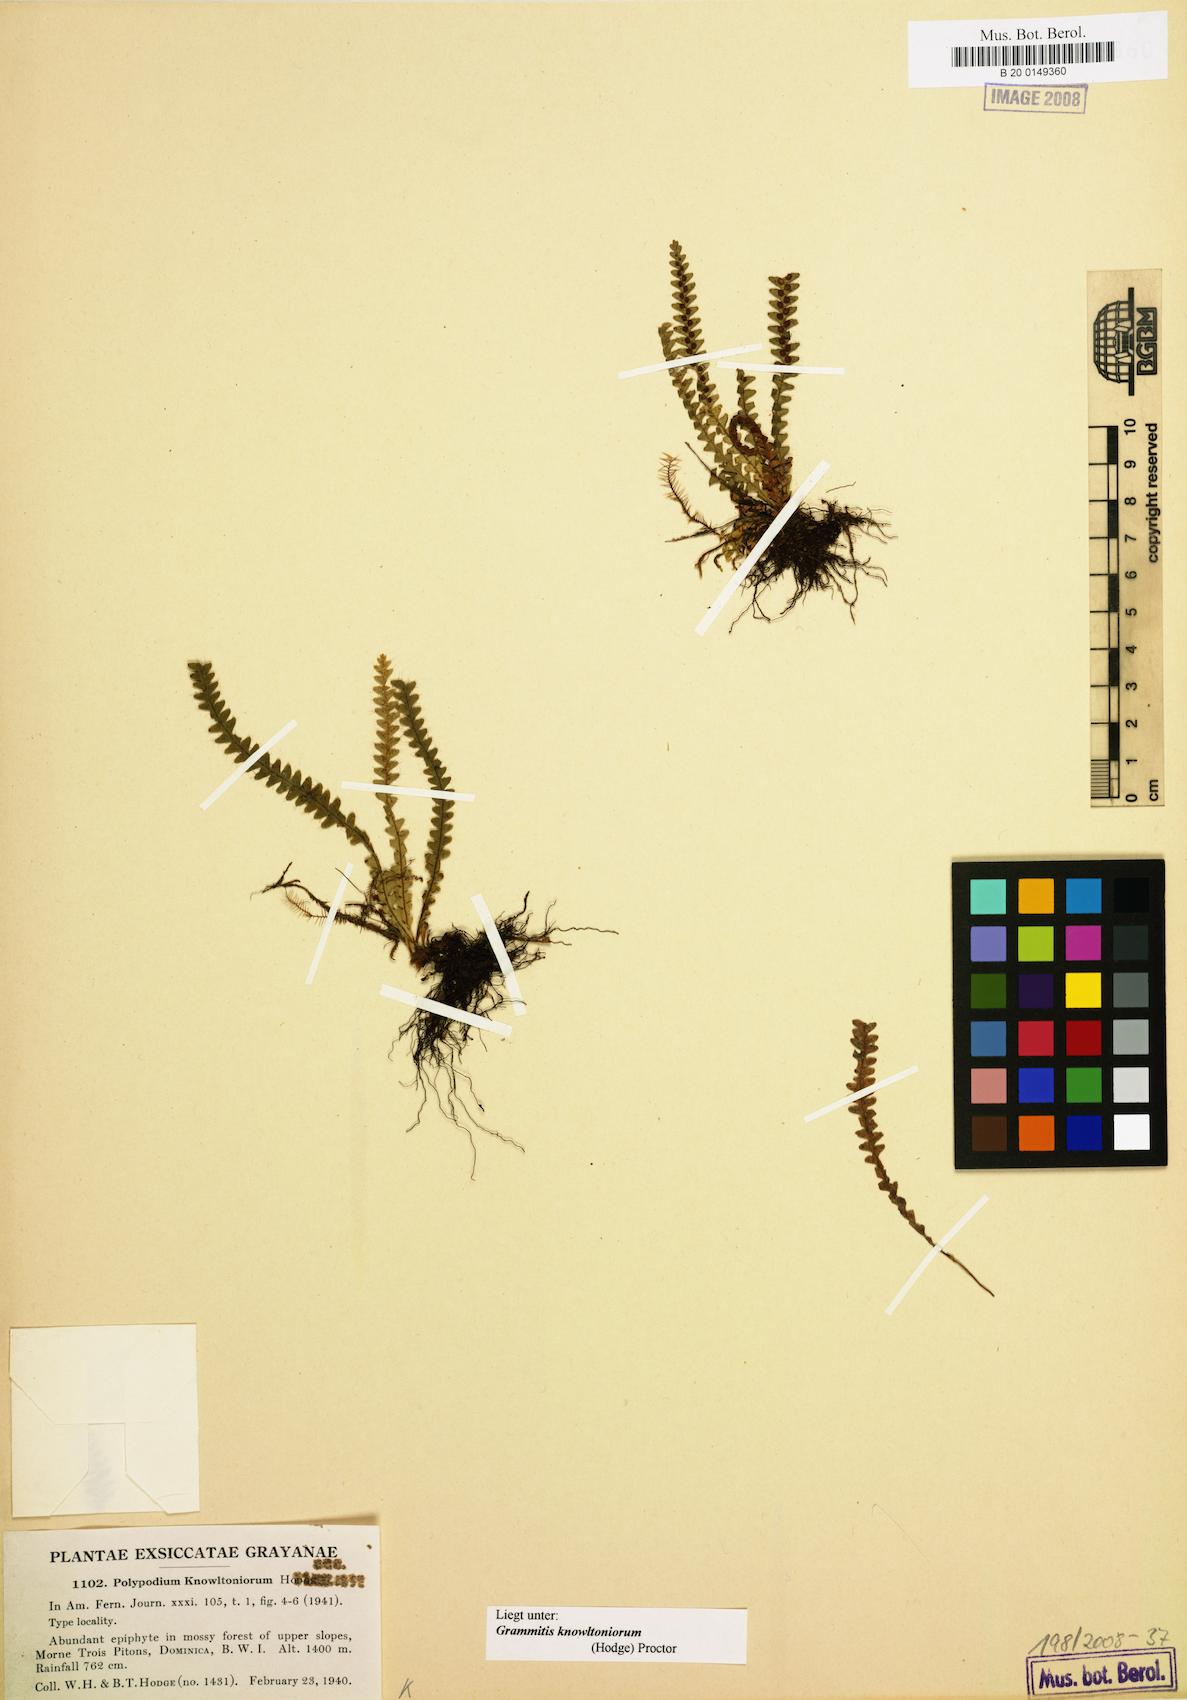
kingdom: Plantae
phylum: Tracheophyta
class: Polypodiopsida
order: Polypodiales
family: Polypodiaceae
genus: Moranopteris
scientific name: Moranopteris knowltoniorum
